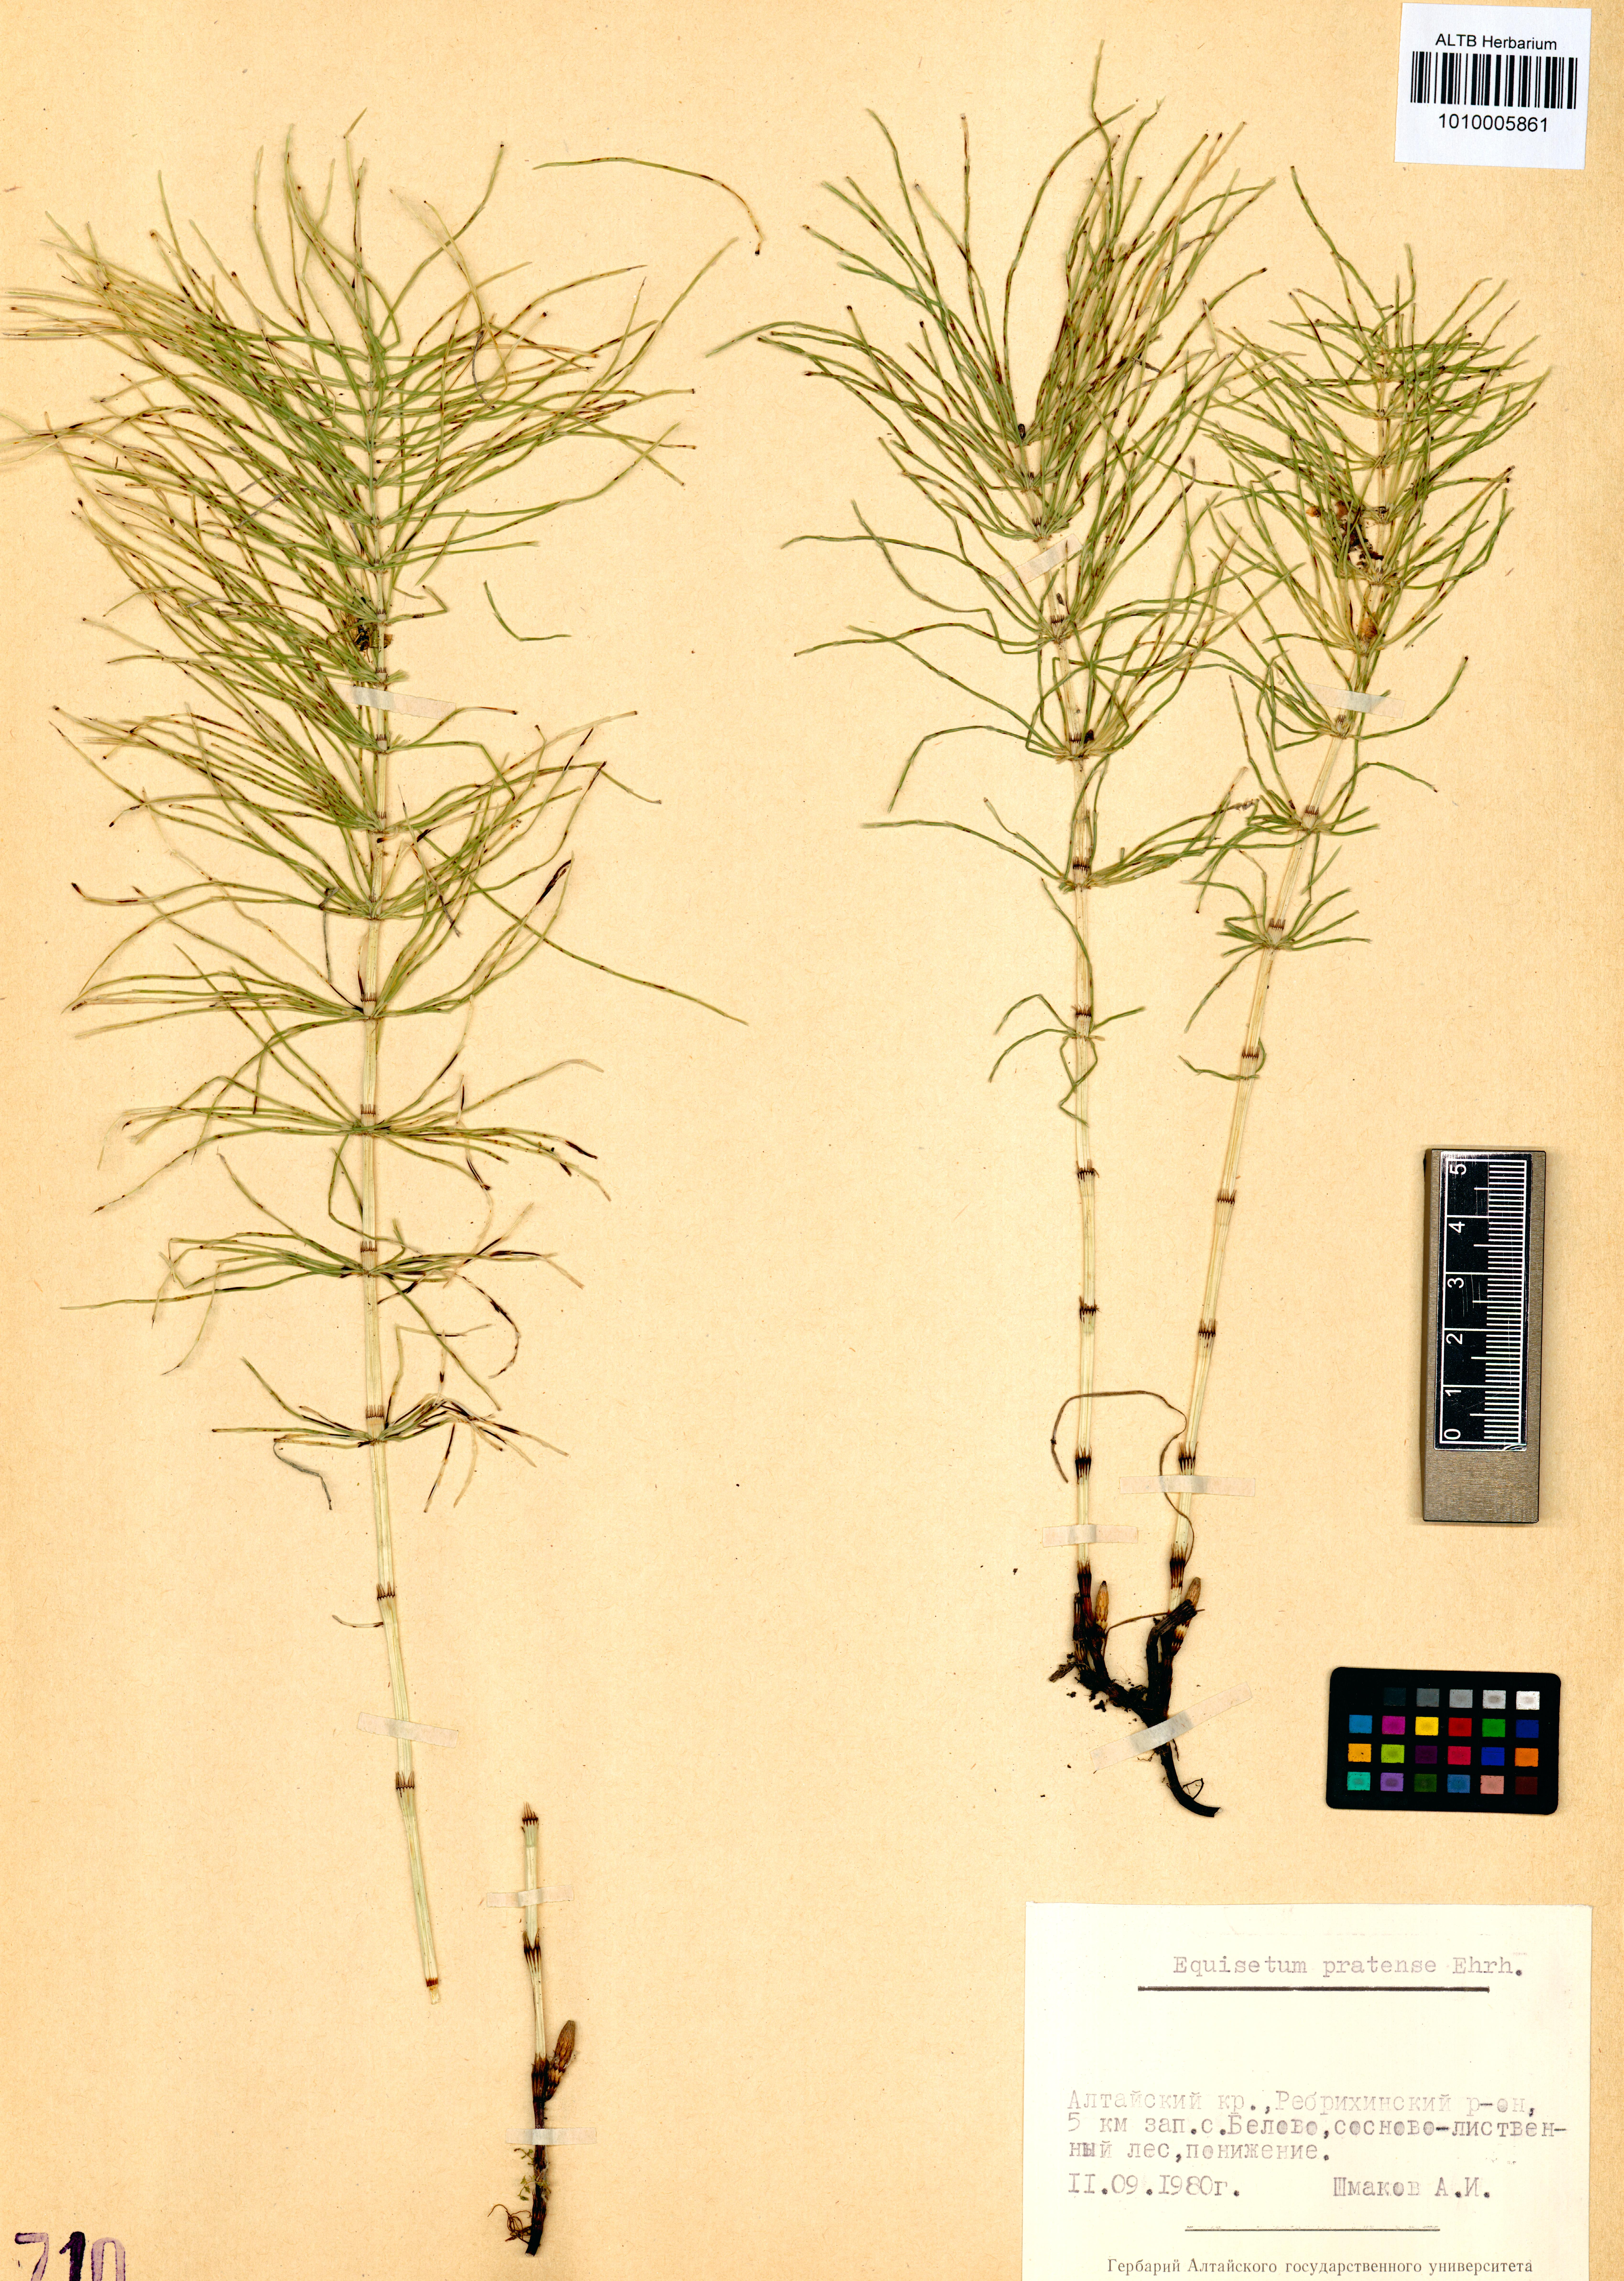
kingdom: Plantae
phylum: Tracheophyta
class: Polypodiopsida
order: Equisetales
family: Equisetaceae
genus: Equisetum
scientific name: Equisetum pratense
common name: Meadow horsetail
